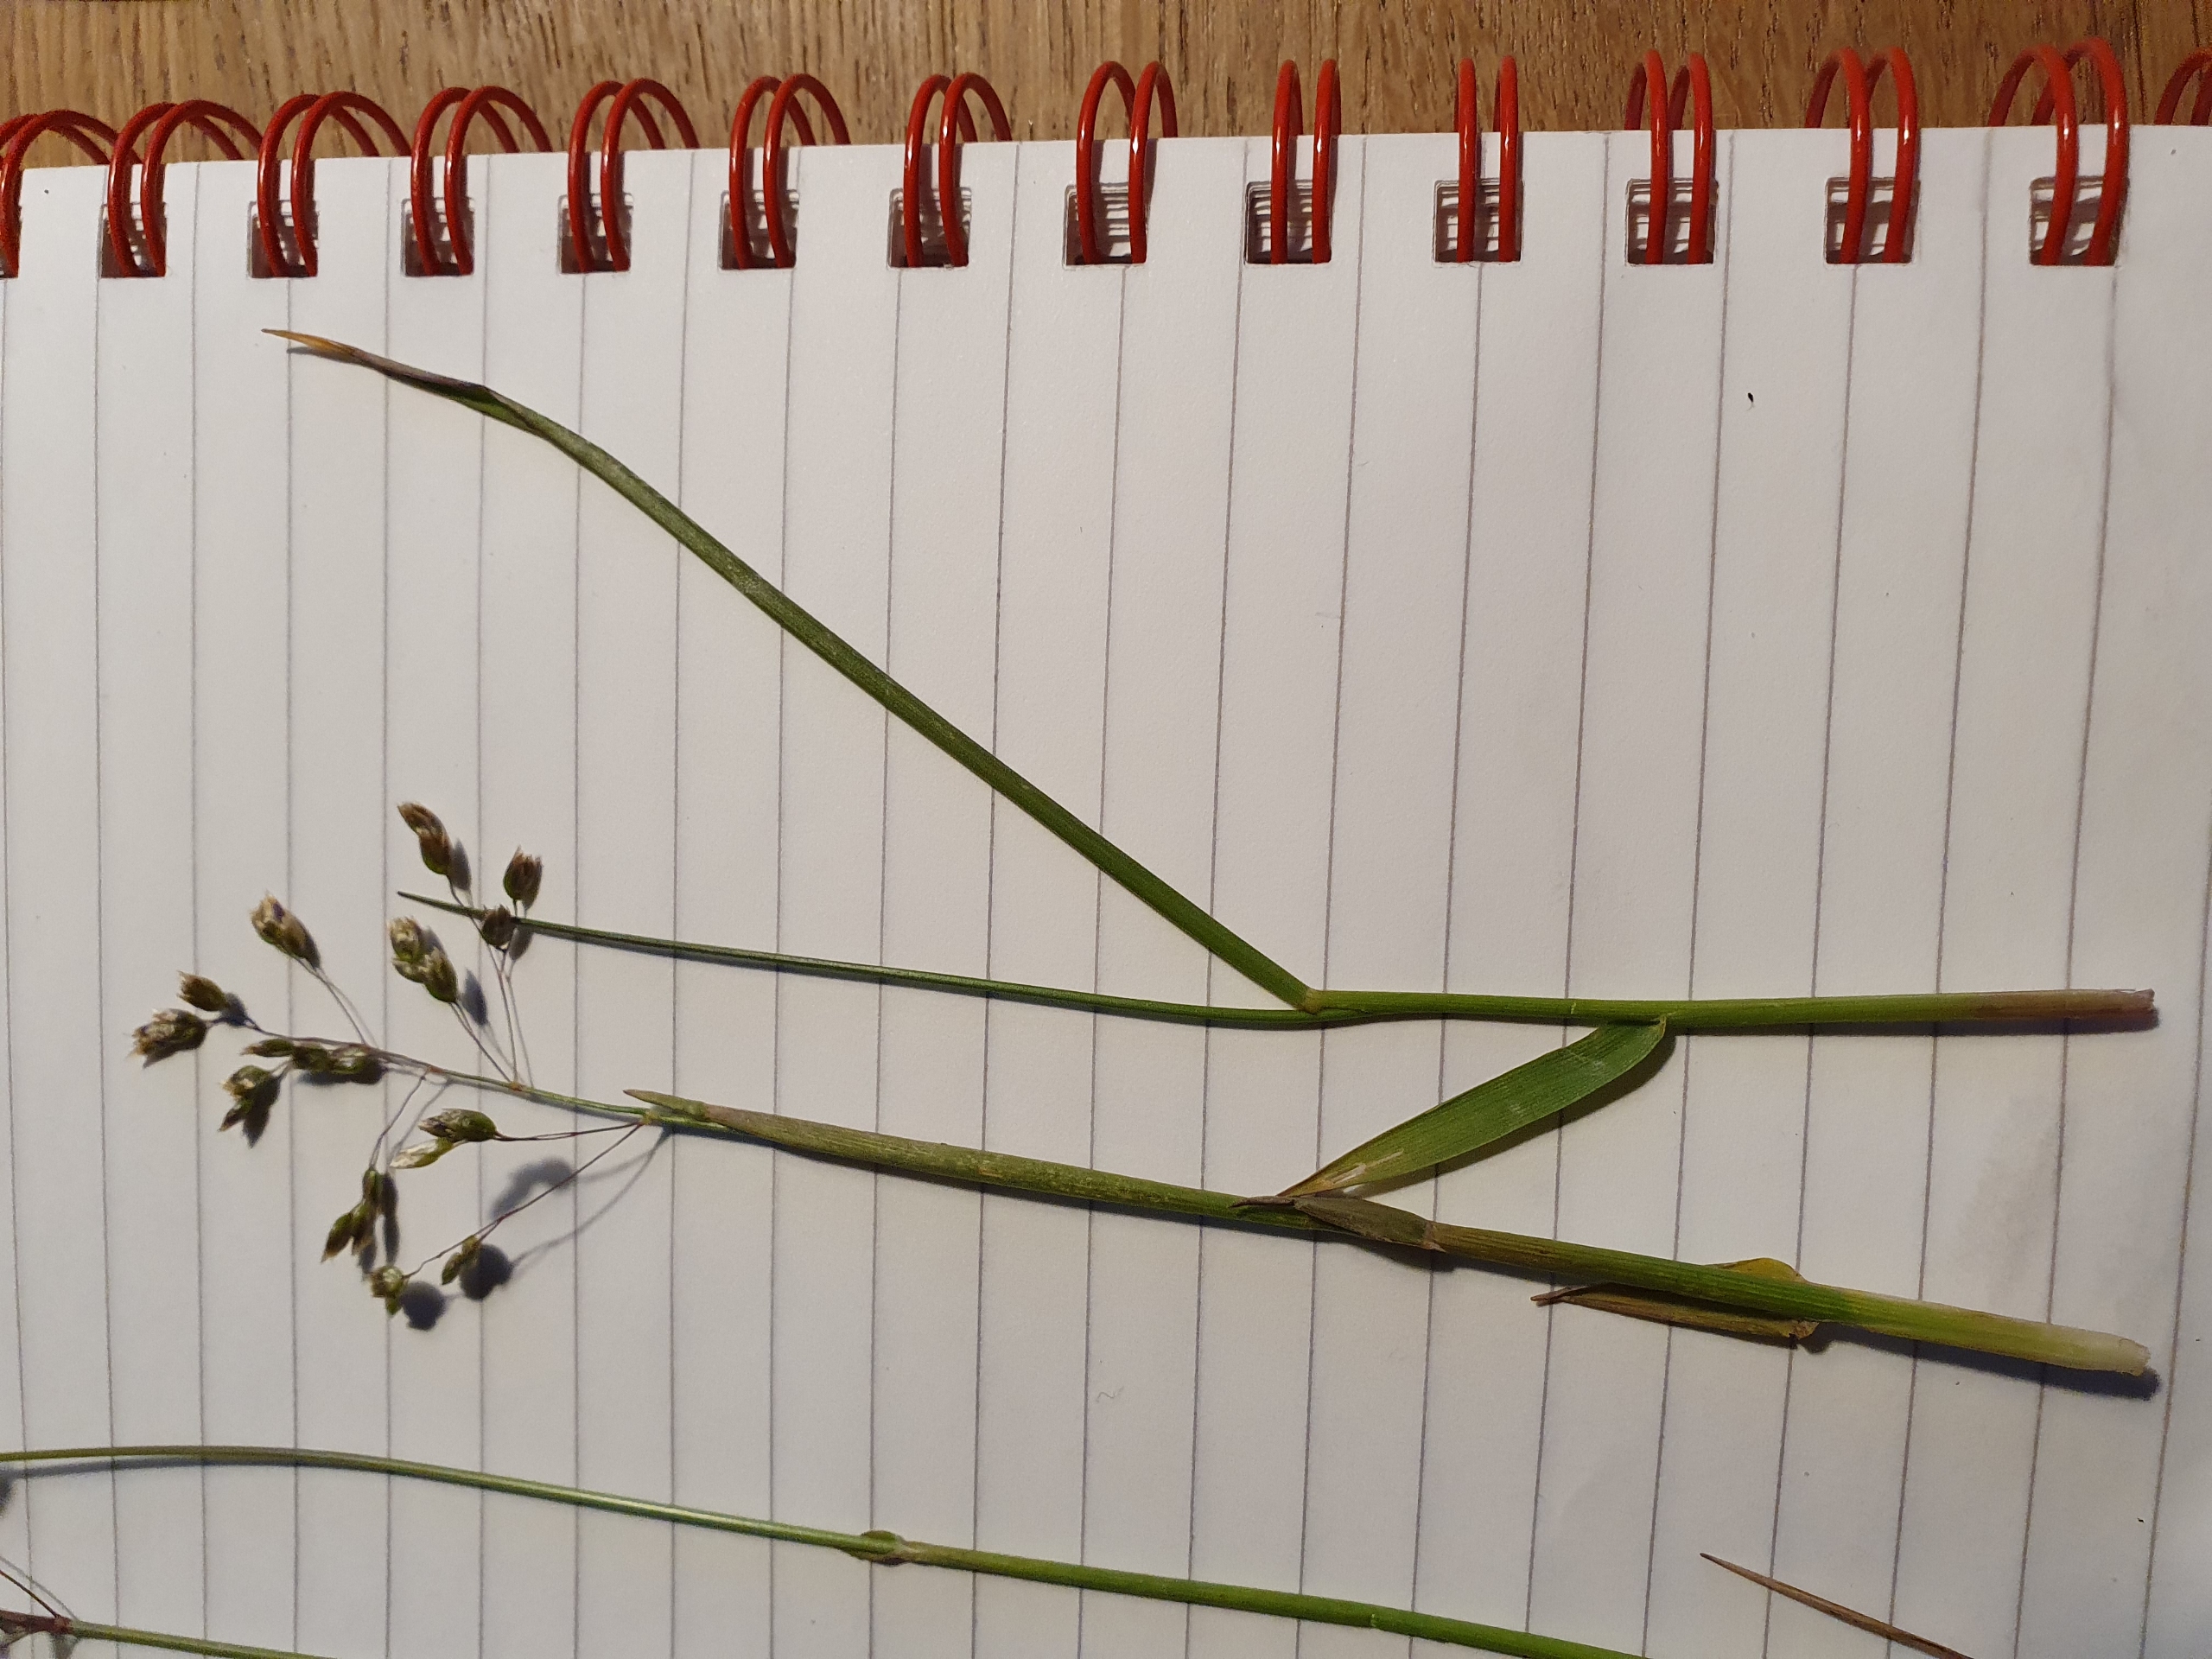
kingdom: Plantae
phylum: Tracheophyta
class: Liliopsida
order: Poales
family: Poaceae
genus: Anthoxanthum
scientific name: Anthoxanthum nitens
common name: Festgræs
